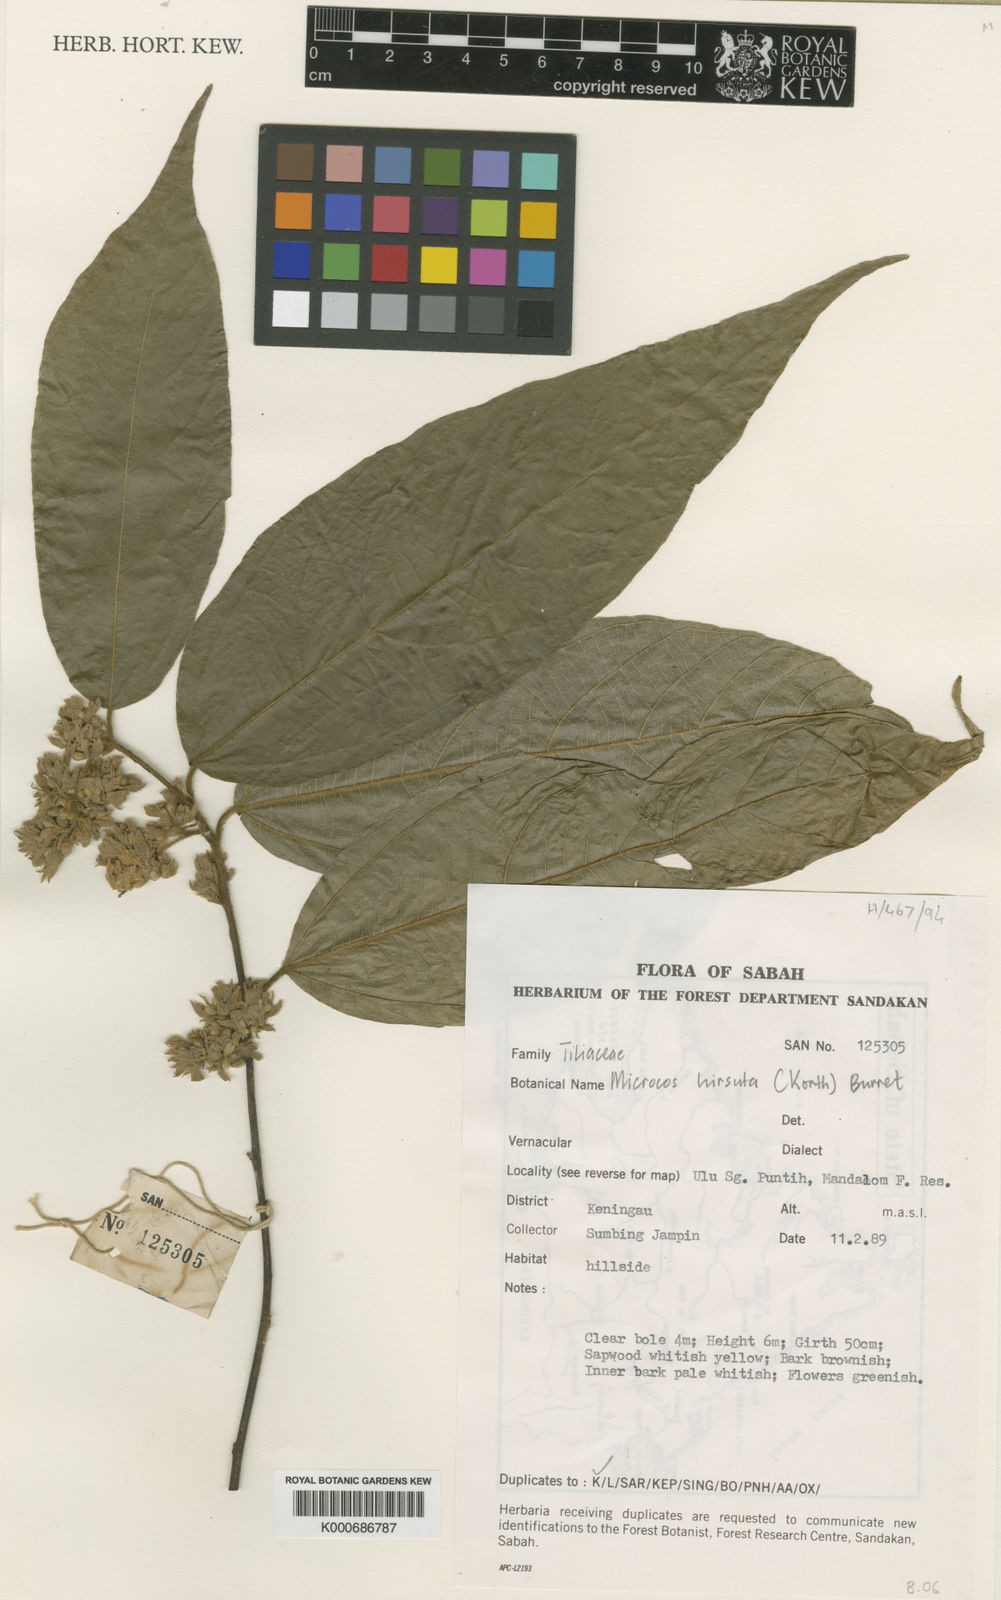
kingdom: Plantae
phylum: Tracheophyta
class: Magnoliopsida
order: Malvales
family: Malvaceae
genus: Microcos
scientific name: Microcos hirsuta
